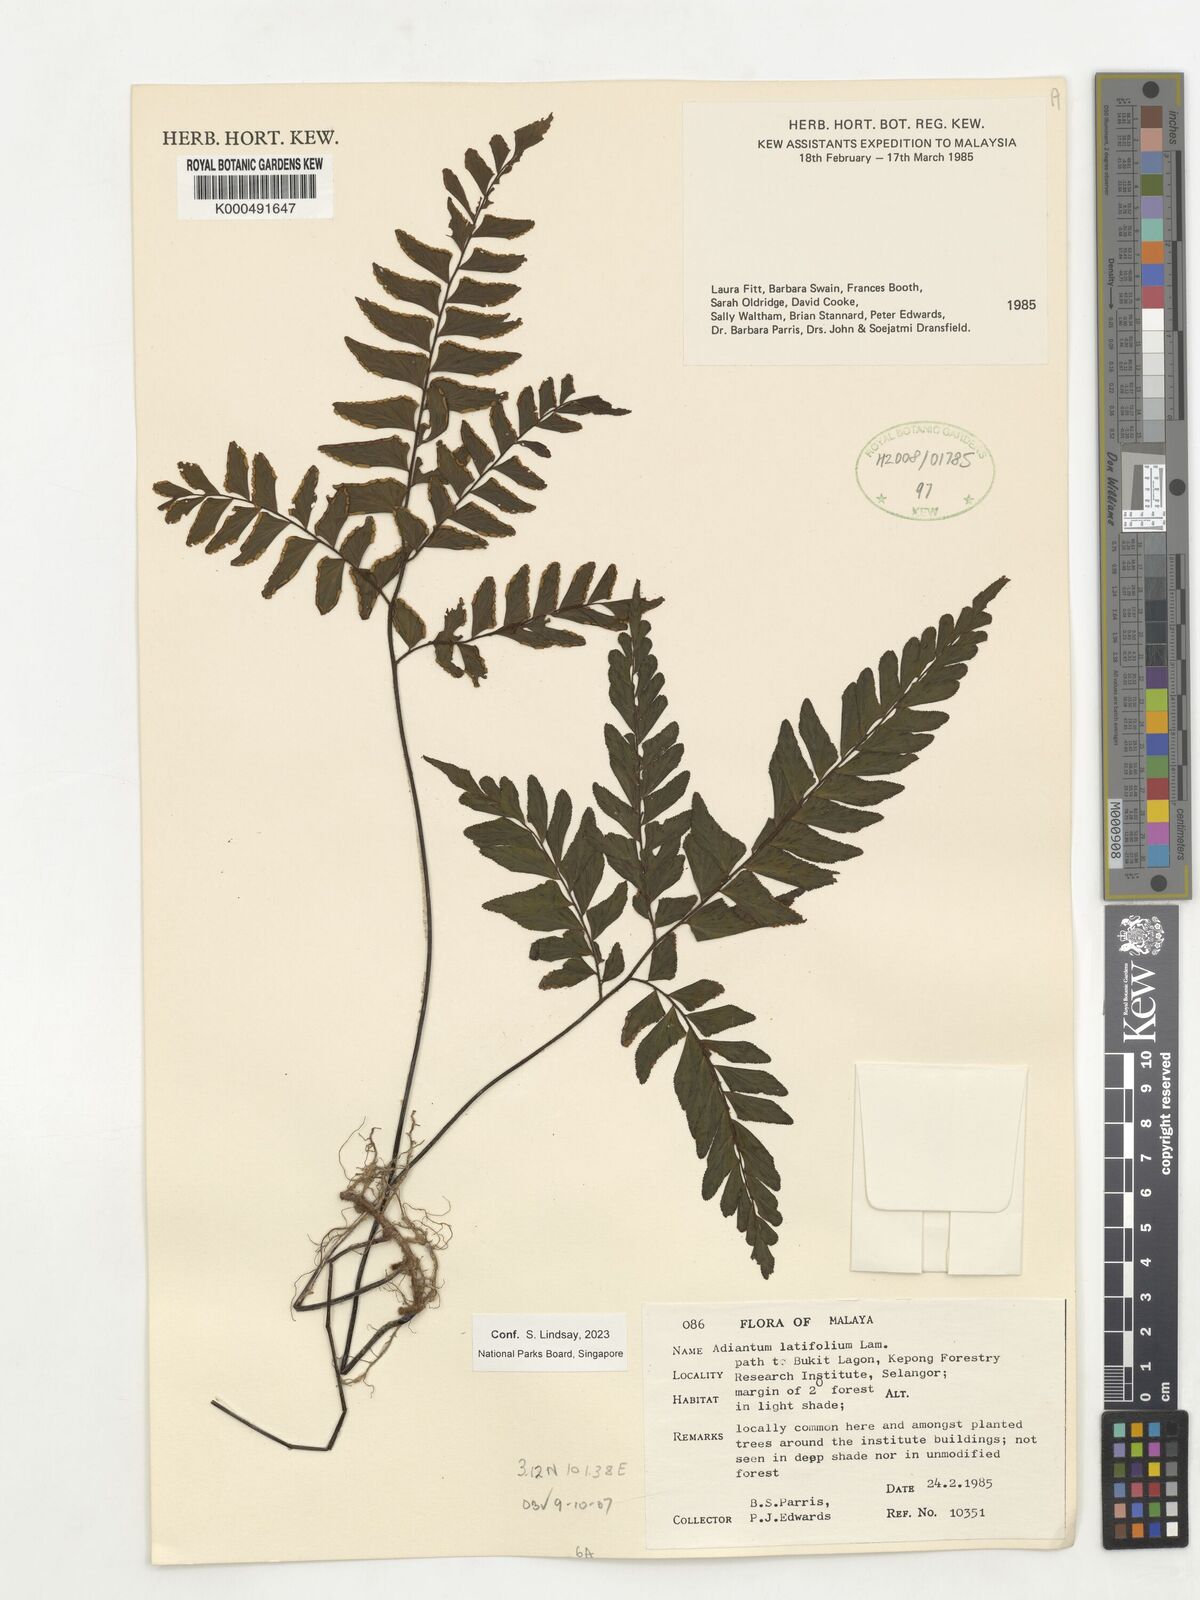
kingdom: Plantae
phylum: Tracheophyta
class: Polypodiopsida
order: Polypodiales
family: Pteridaceae
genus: Adiantum
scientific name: Adiantum latifolium
